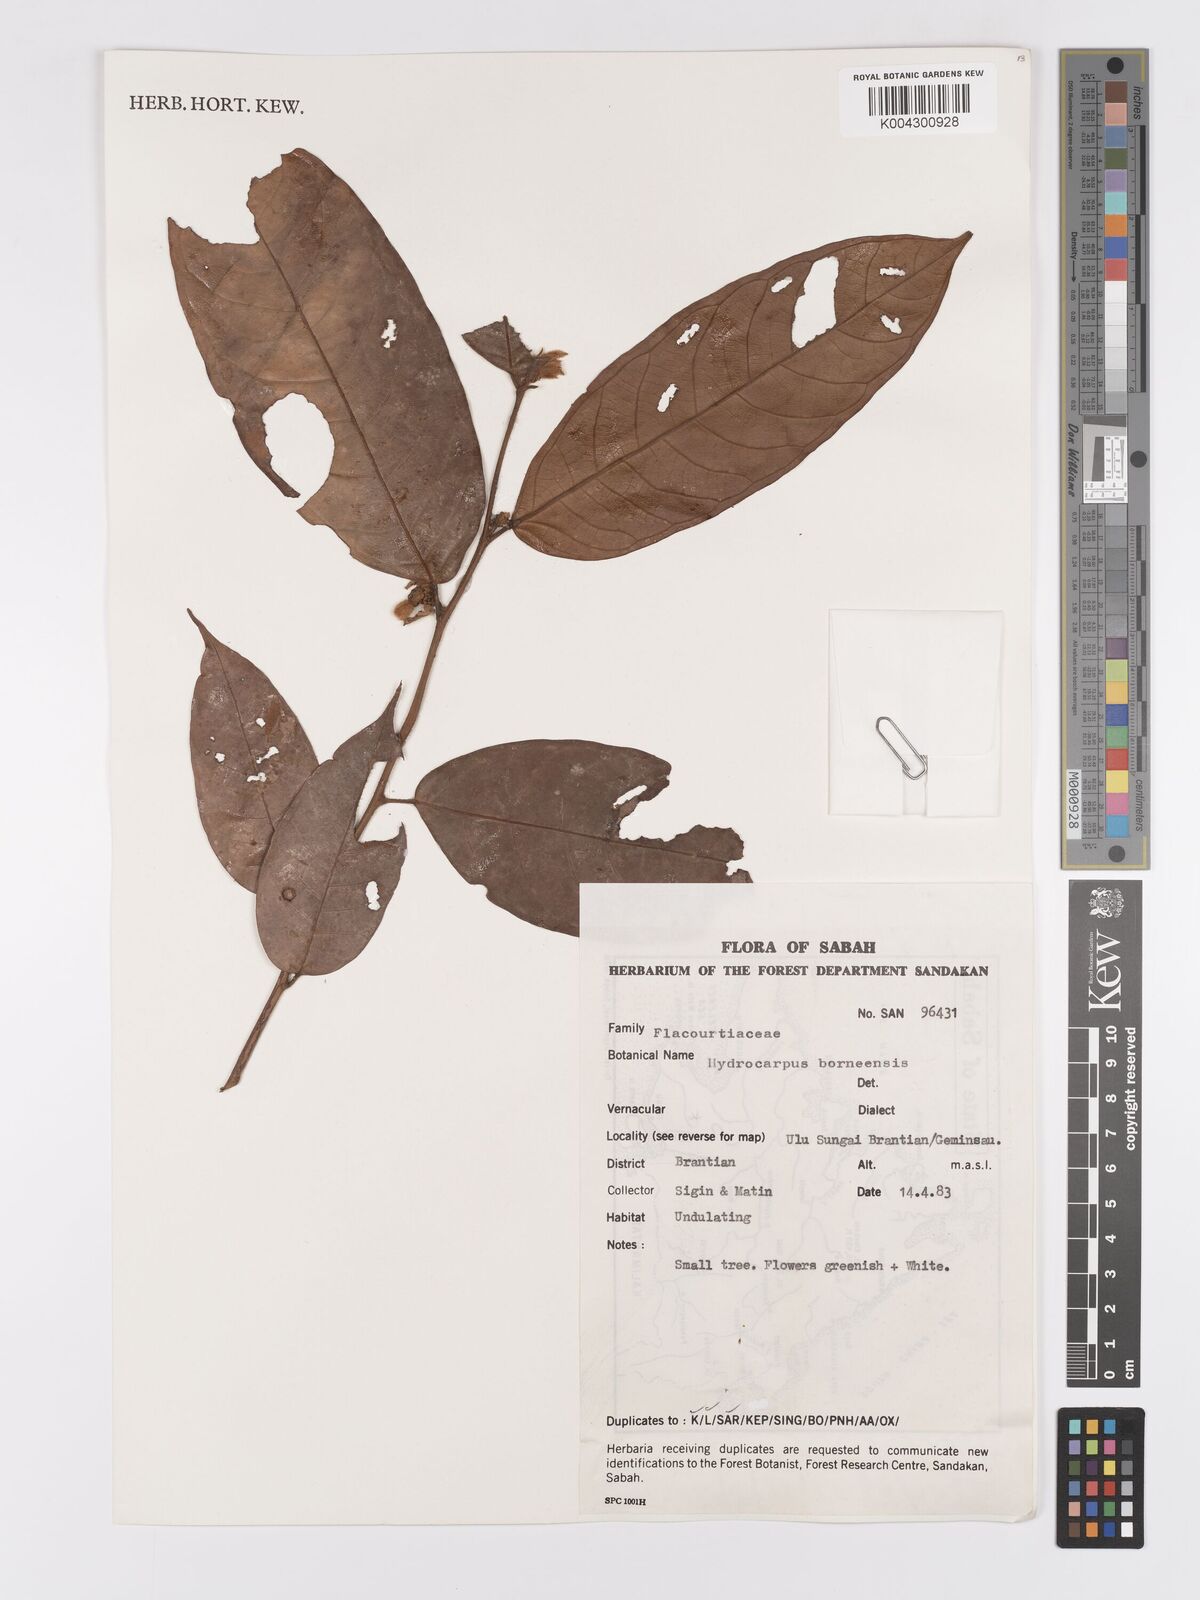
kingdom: Plantae
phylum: Tracheophyta
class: Magnoliopsida
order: Malpighiales
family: Achariaceae
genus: Hydnocarpus
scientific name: Hydnocarpus borneensis
